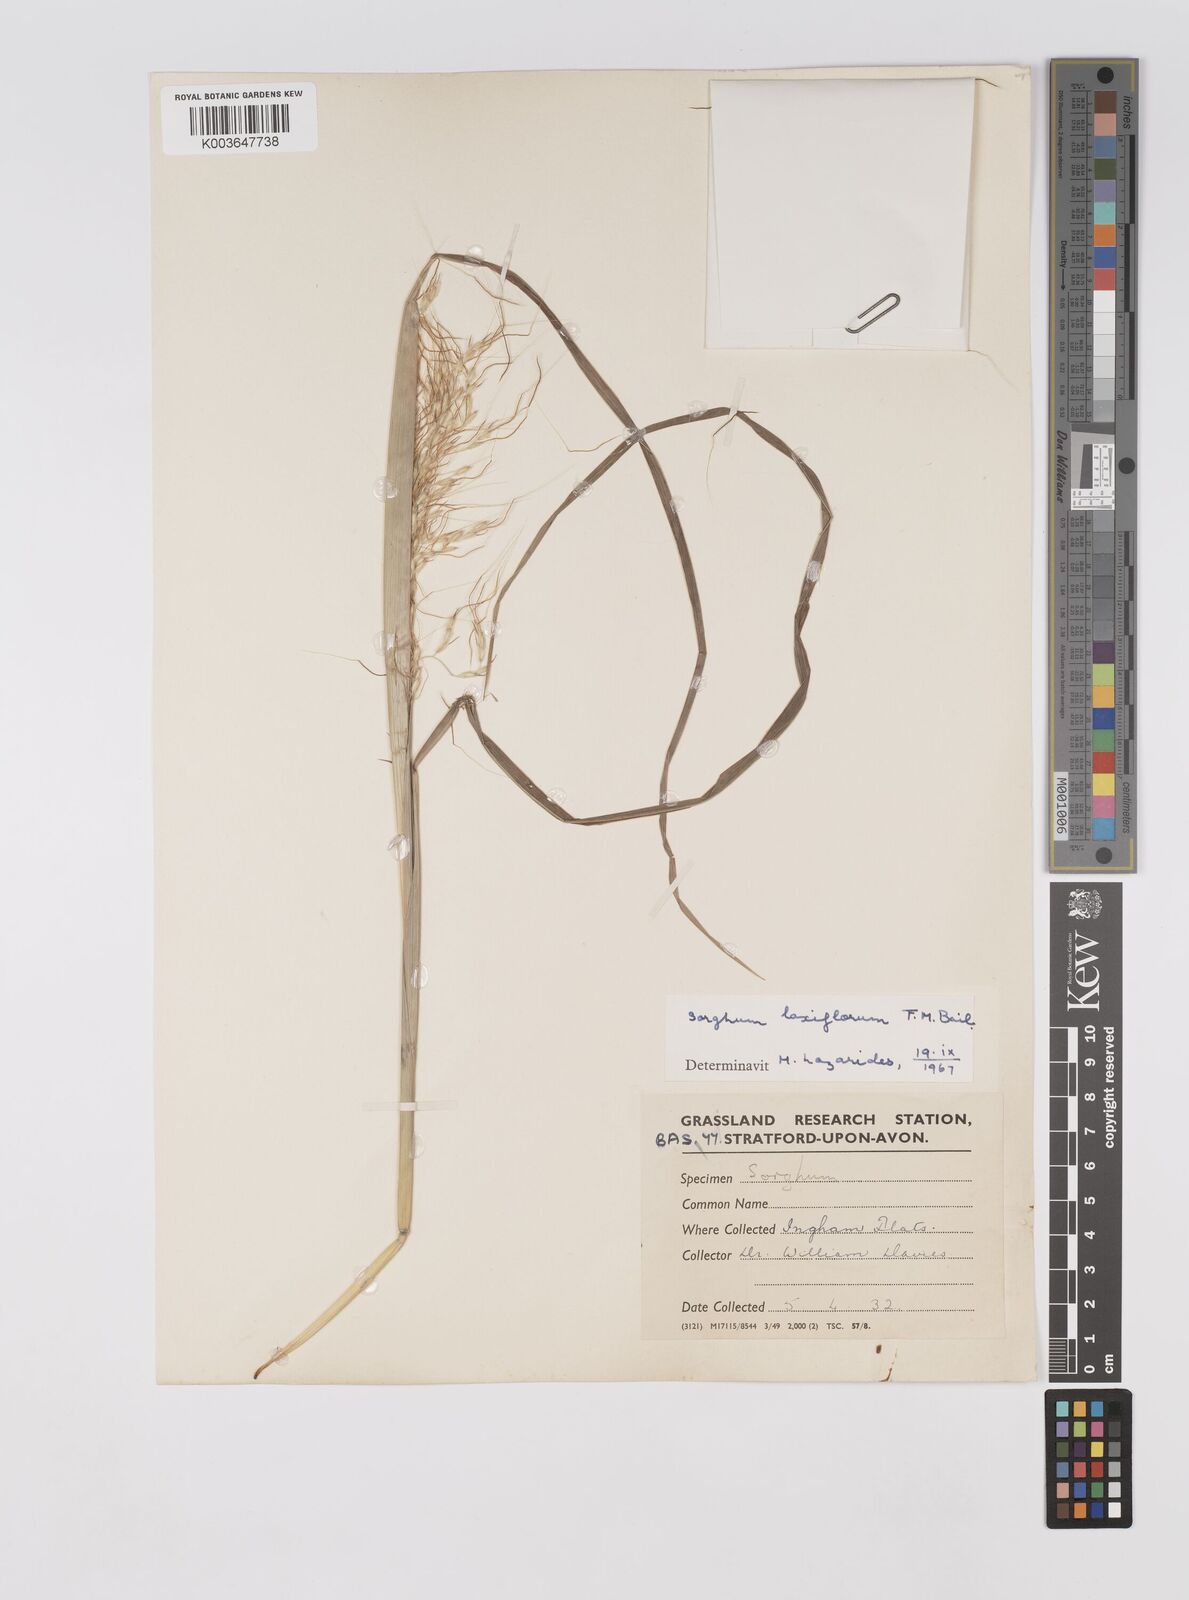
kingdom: Plantae
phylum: Tracheophyta
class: Liliopsida
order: Poales
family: Poaceae
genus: Sorghum
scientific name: Sorghum laxiflorum
